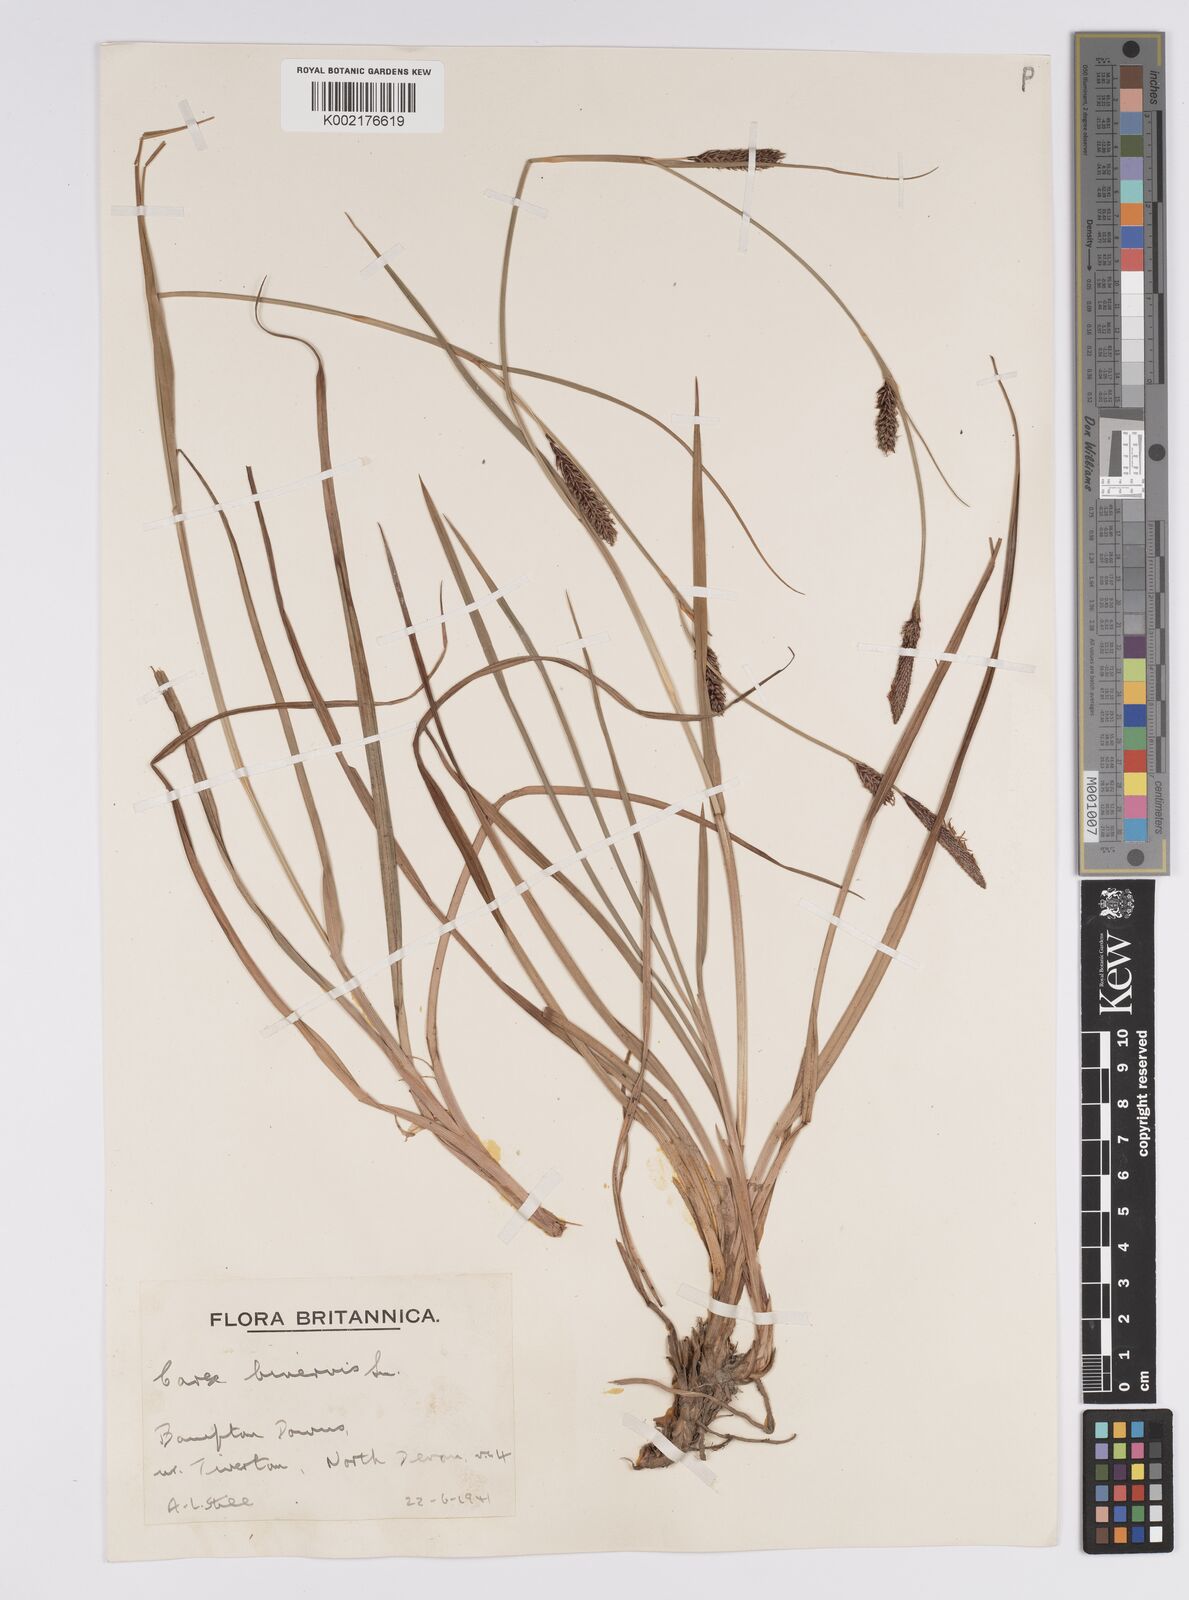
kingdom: Plantae
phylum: Tracheophyta
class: Liliopsida
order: Poales
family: Cyperaceae
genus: Carex
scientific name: Carex binervis
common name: Green-ribbed sedge
